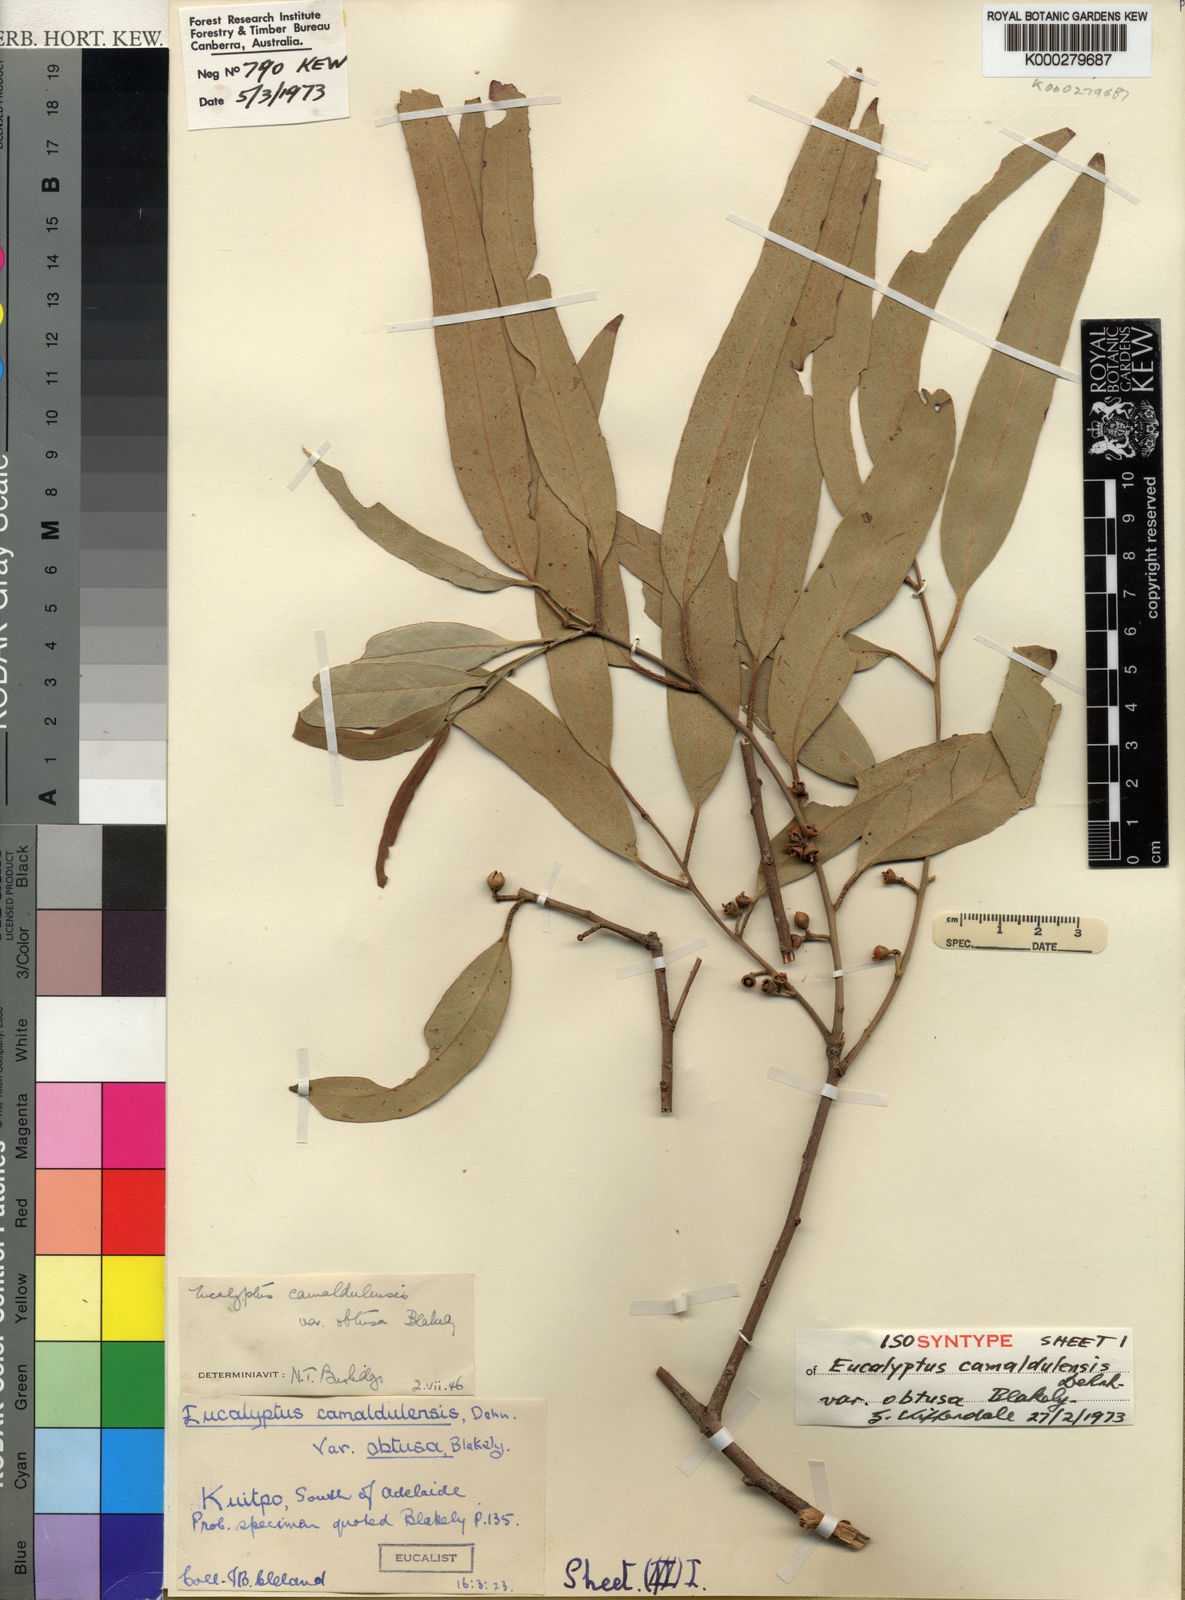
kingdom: Plantae
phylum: Tracheophyta
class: Magnoliopsida
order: Myrtales
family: Myrtaceae
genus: Eucalyptus
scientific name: Eucalyptus camaldulensis
